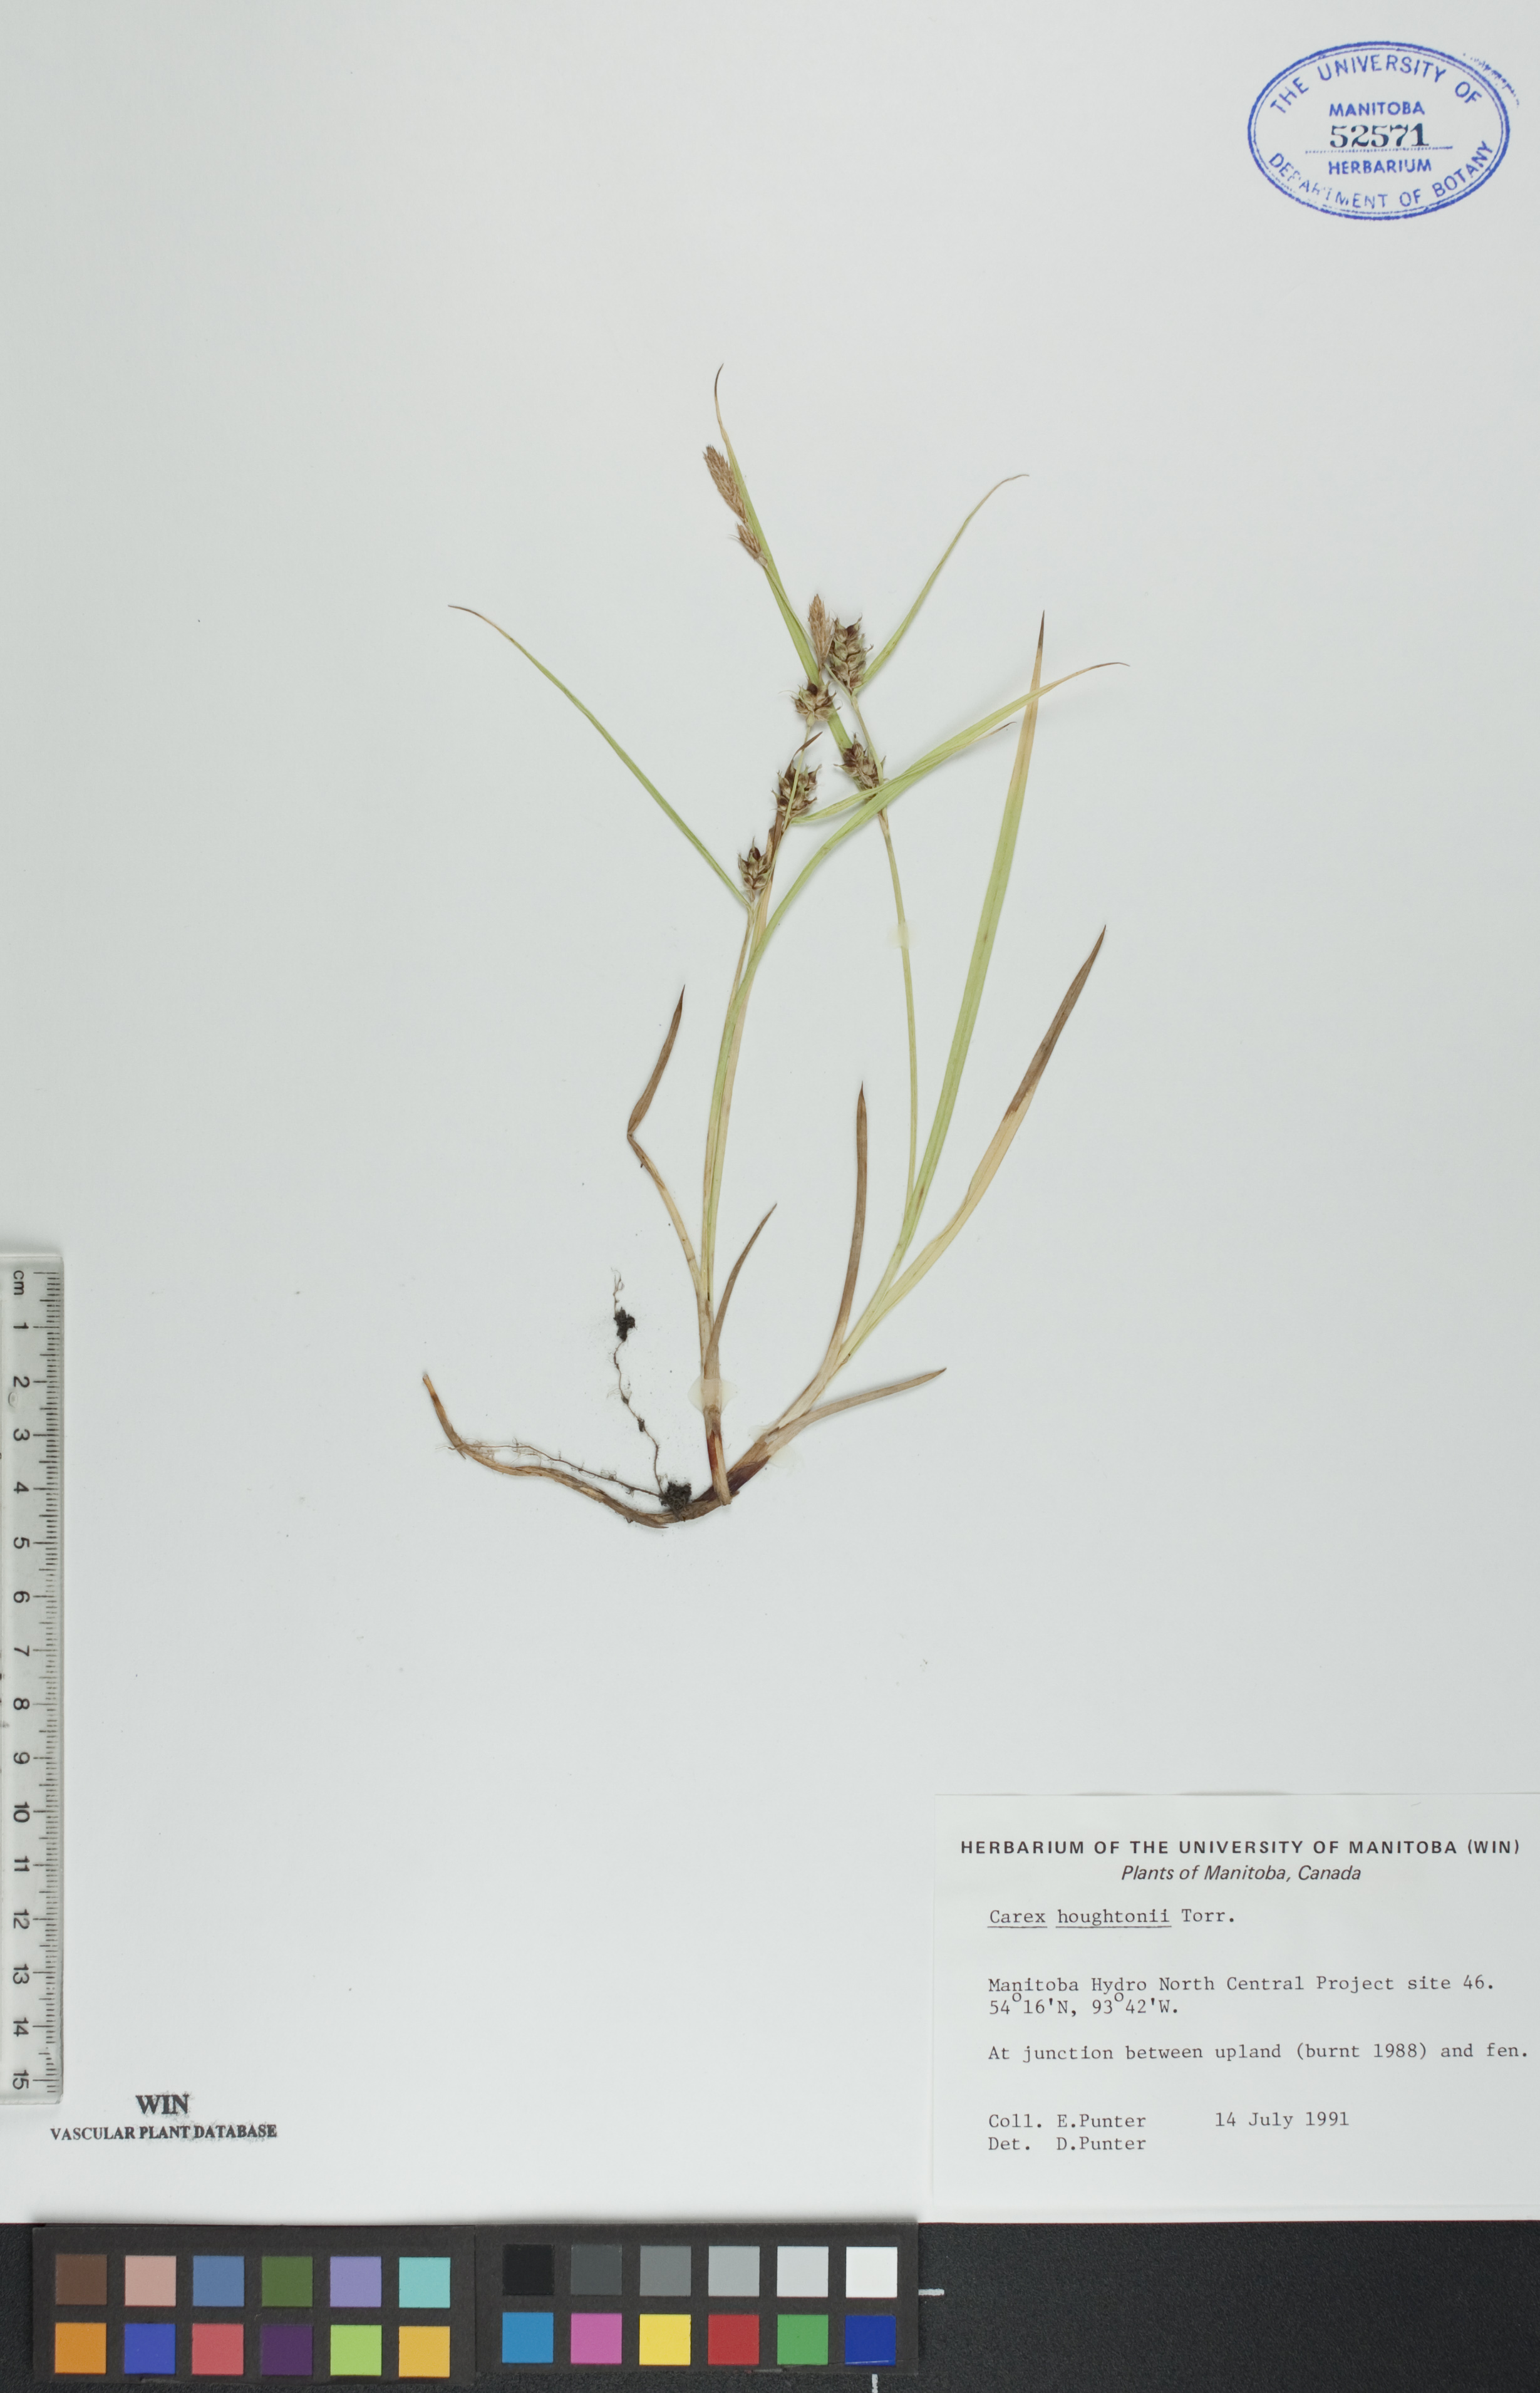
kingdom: Plantae
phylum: Tracheophyta
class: Liliopsida
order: Poales
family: Cyperaceae
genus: Carex
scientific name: Carex houghtoniana
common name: Houghton's sedge
